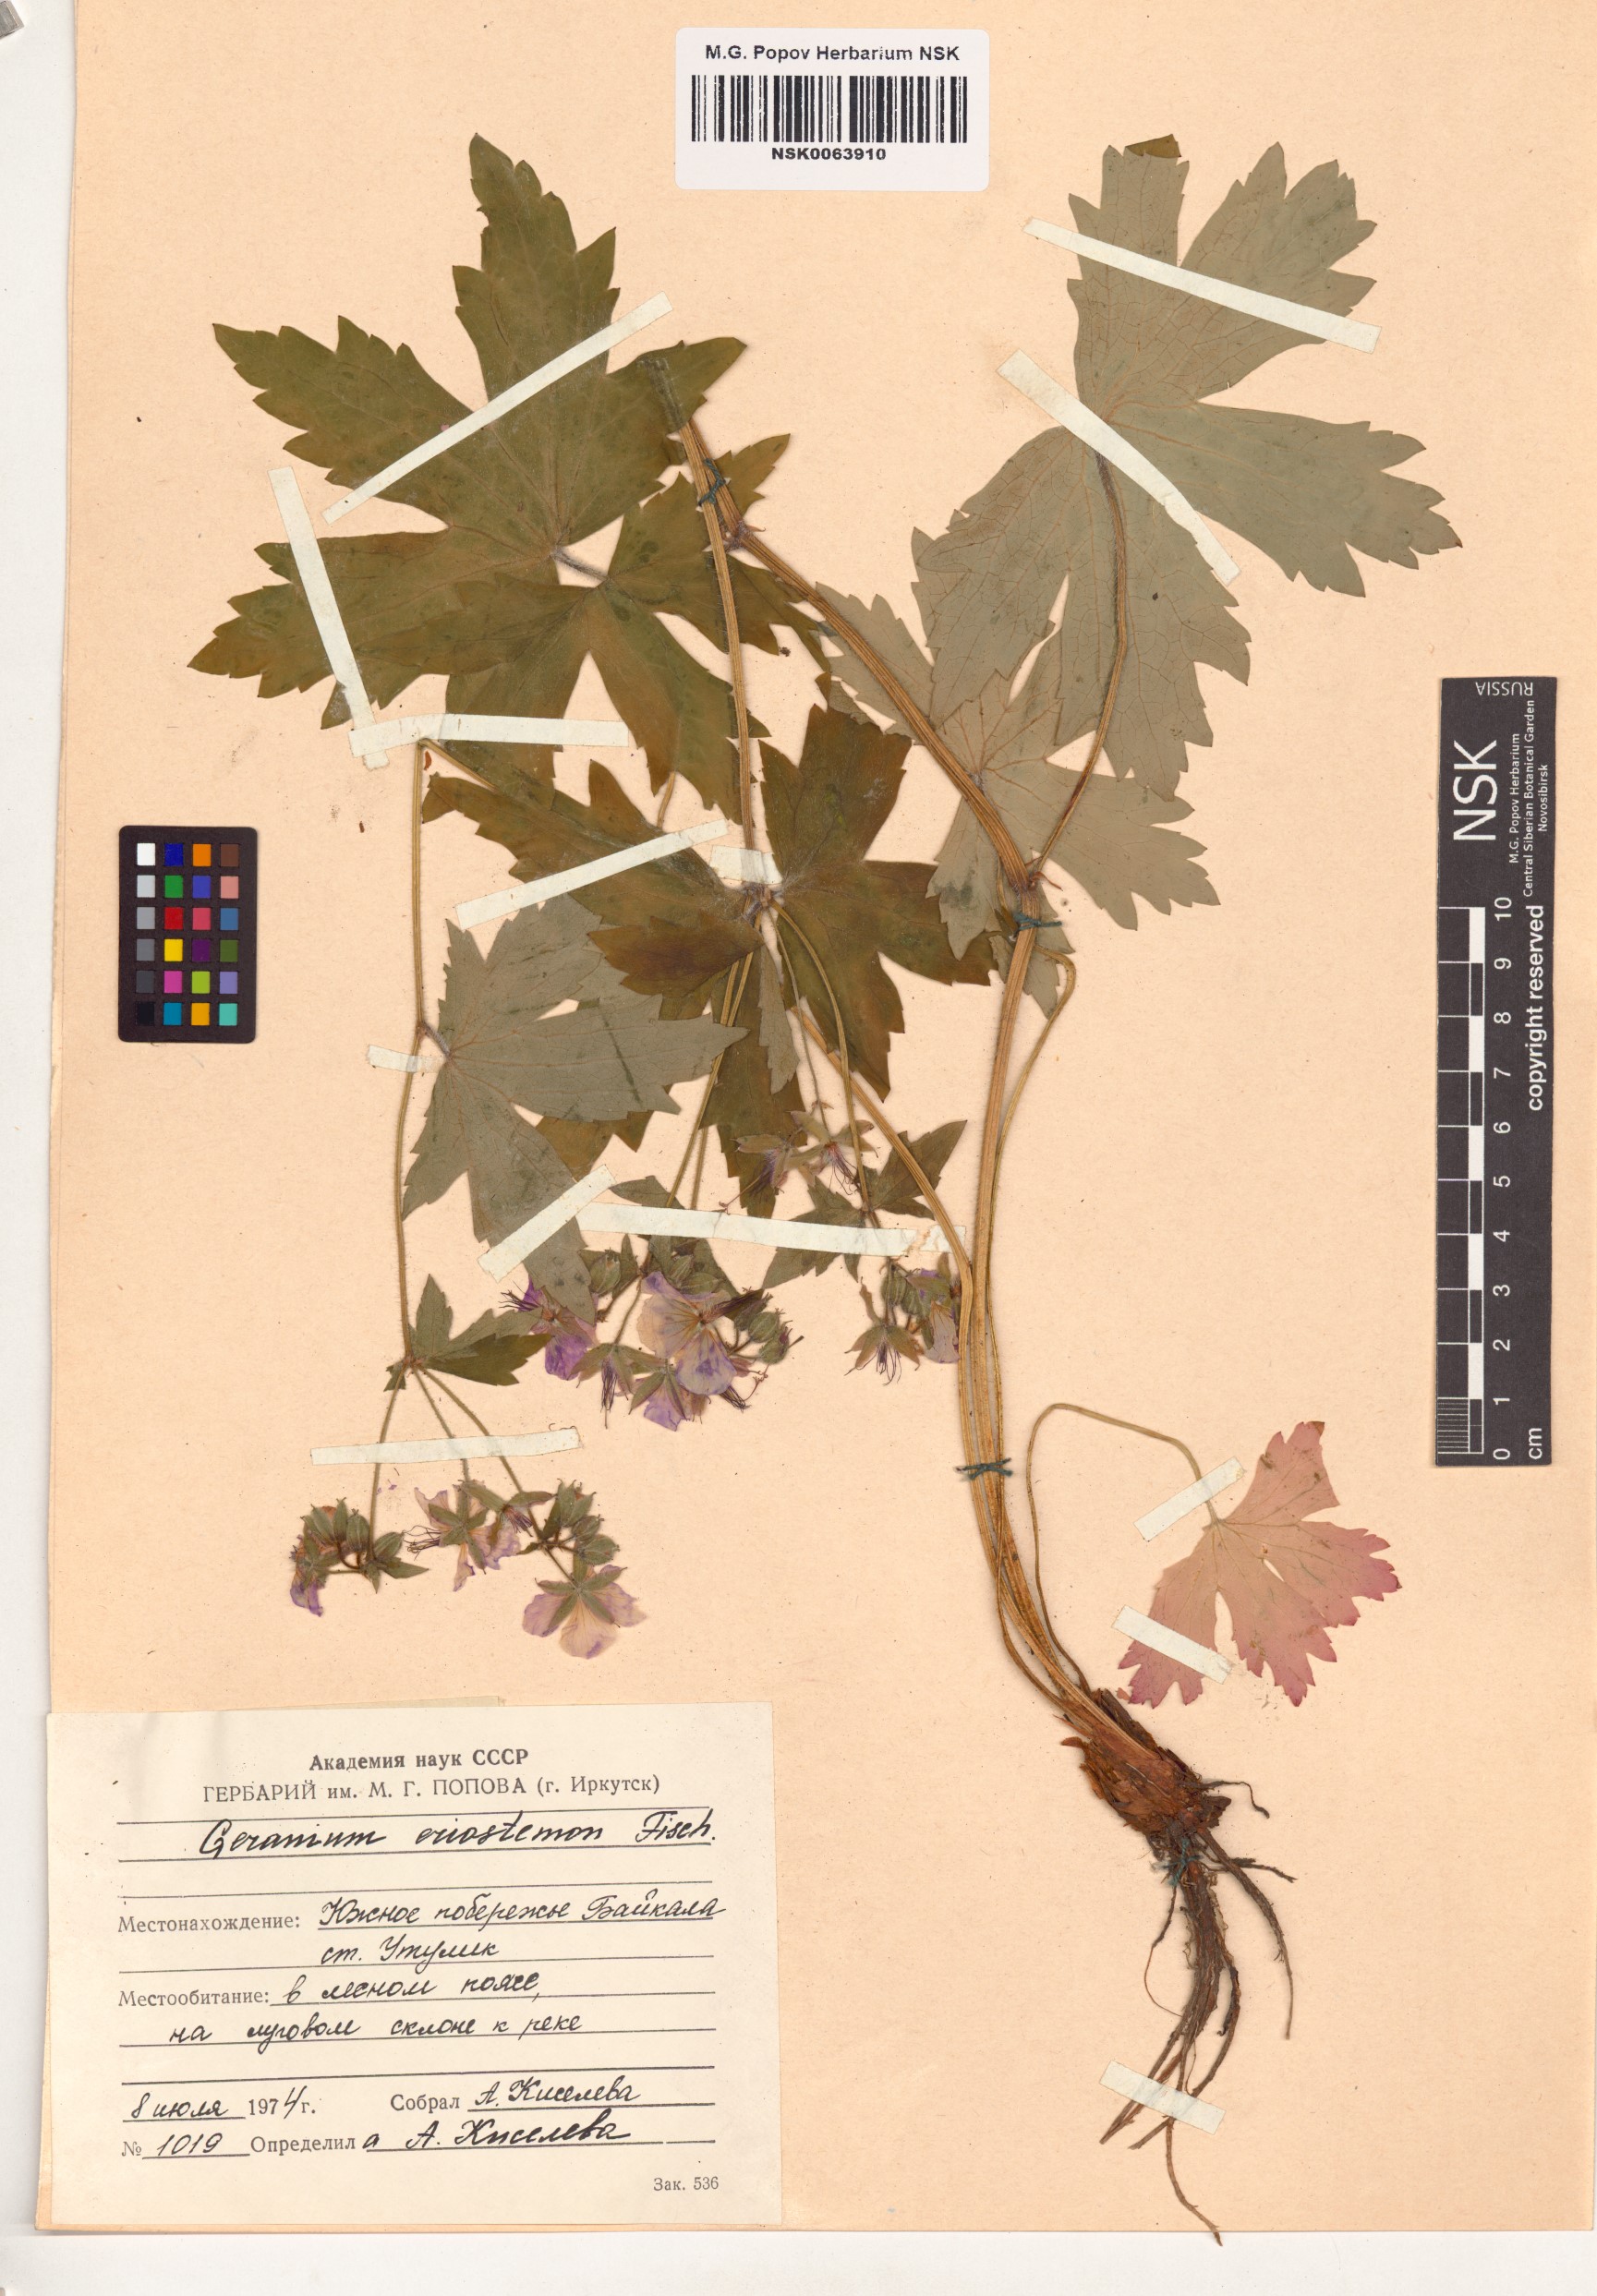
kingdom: Plantae
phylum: Tracheophyta
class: Magnoliopsida
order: Geraniales
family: Geraniaceae
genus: Geranium
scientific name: Geranium platyanthum
